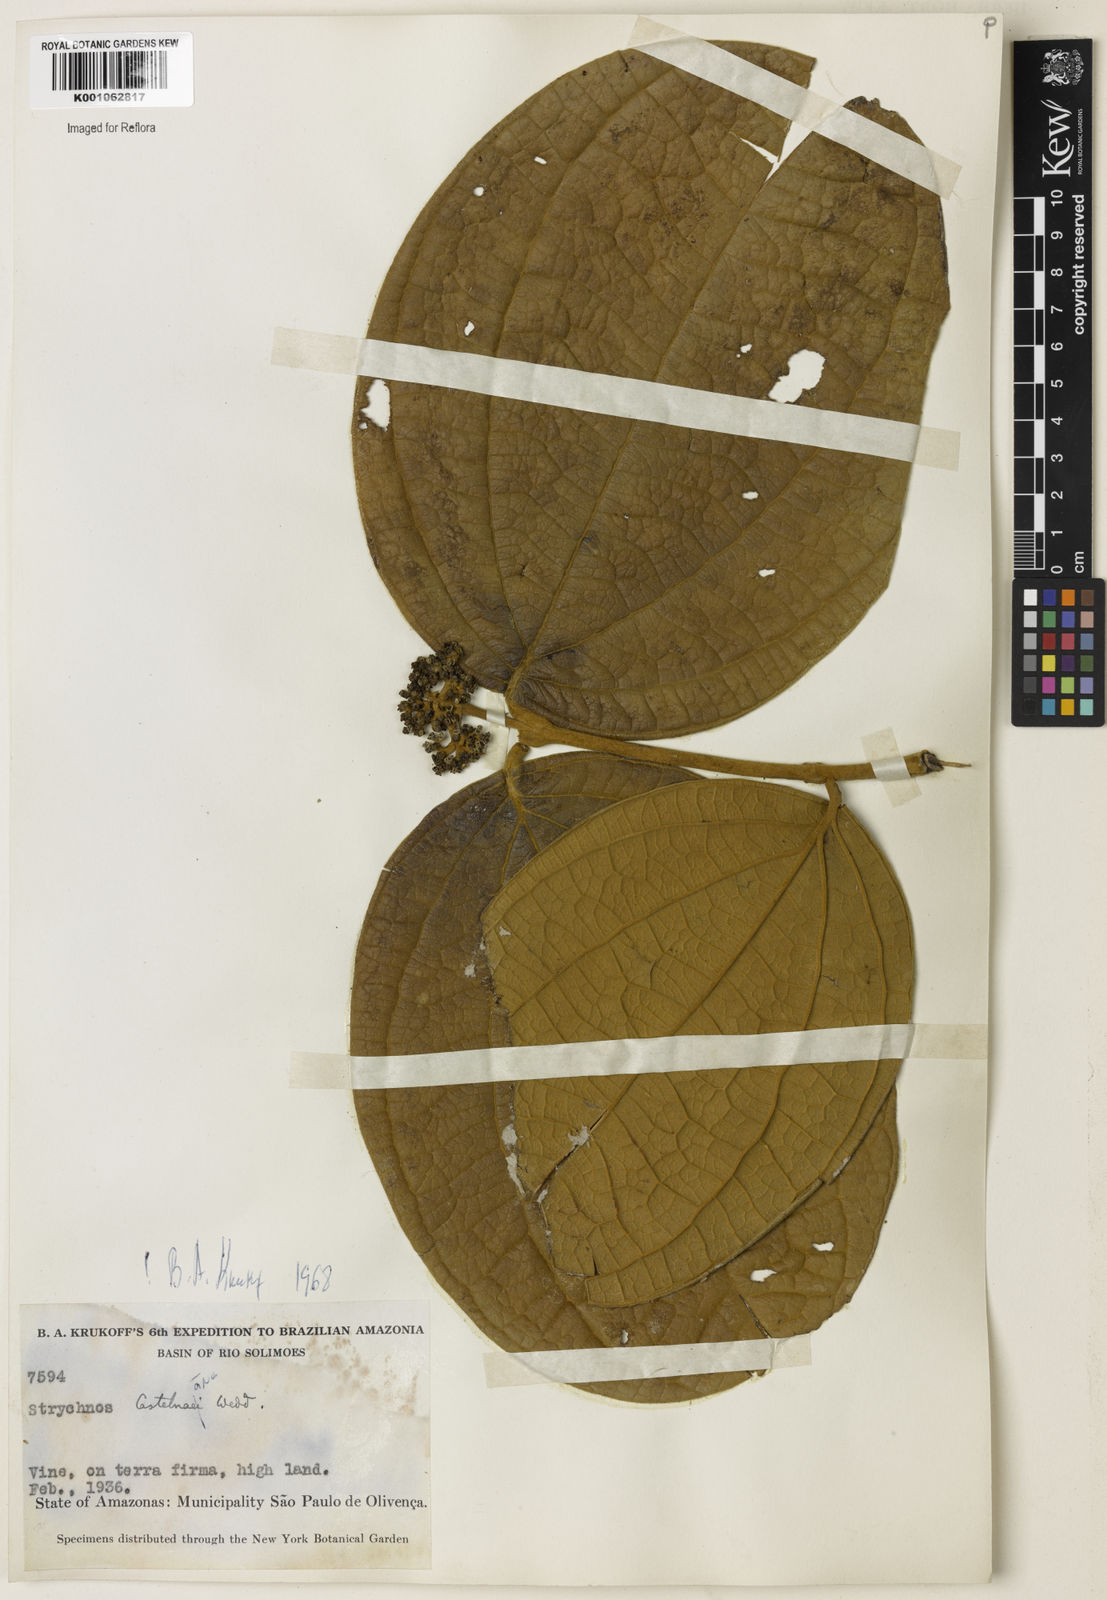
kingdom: Plantae
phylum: Tracheophyta
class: Magnoliopsida
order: Gentianales
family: Loganiaceae
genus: Strychnos
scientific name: Strychnos
